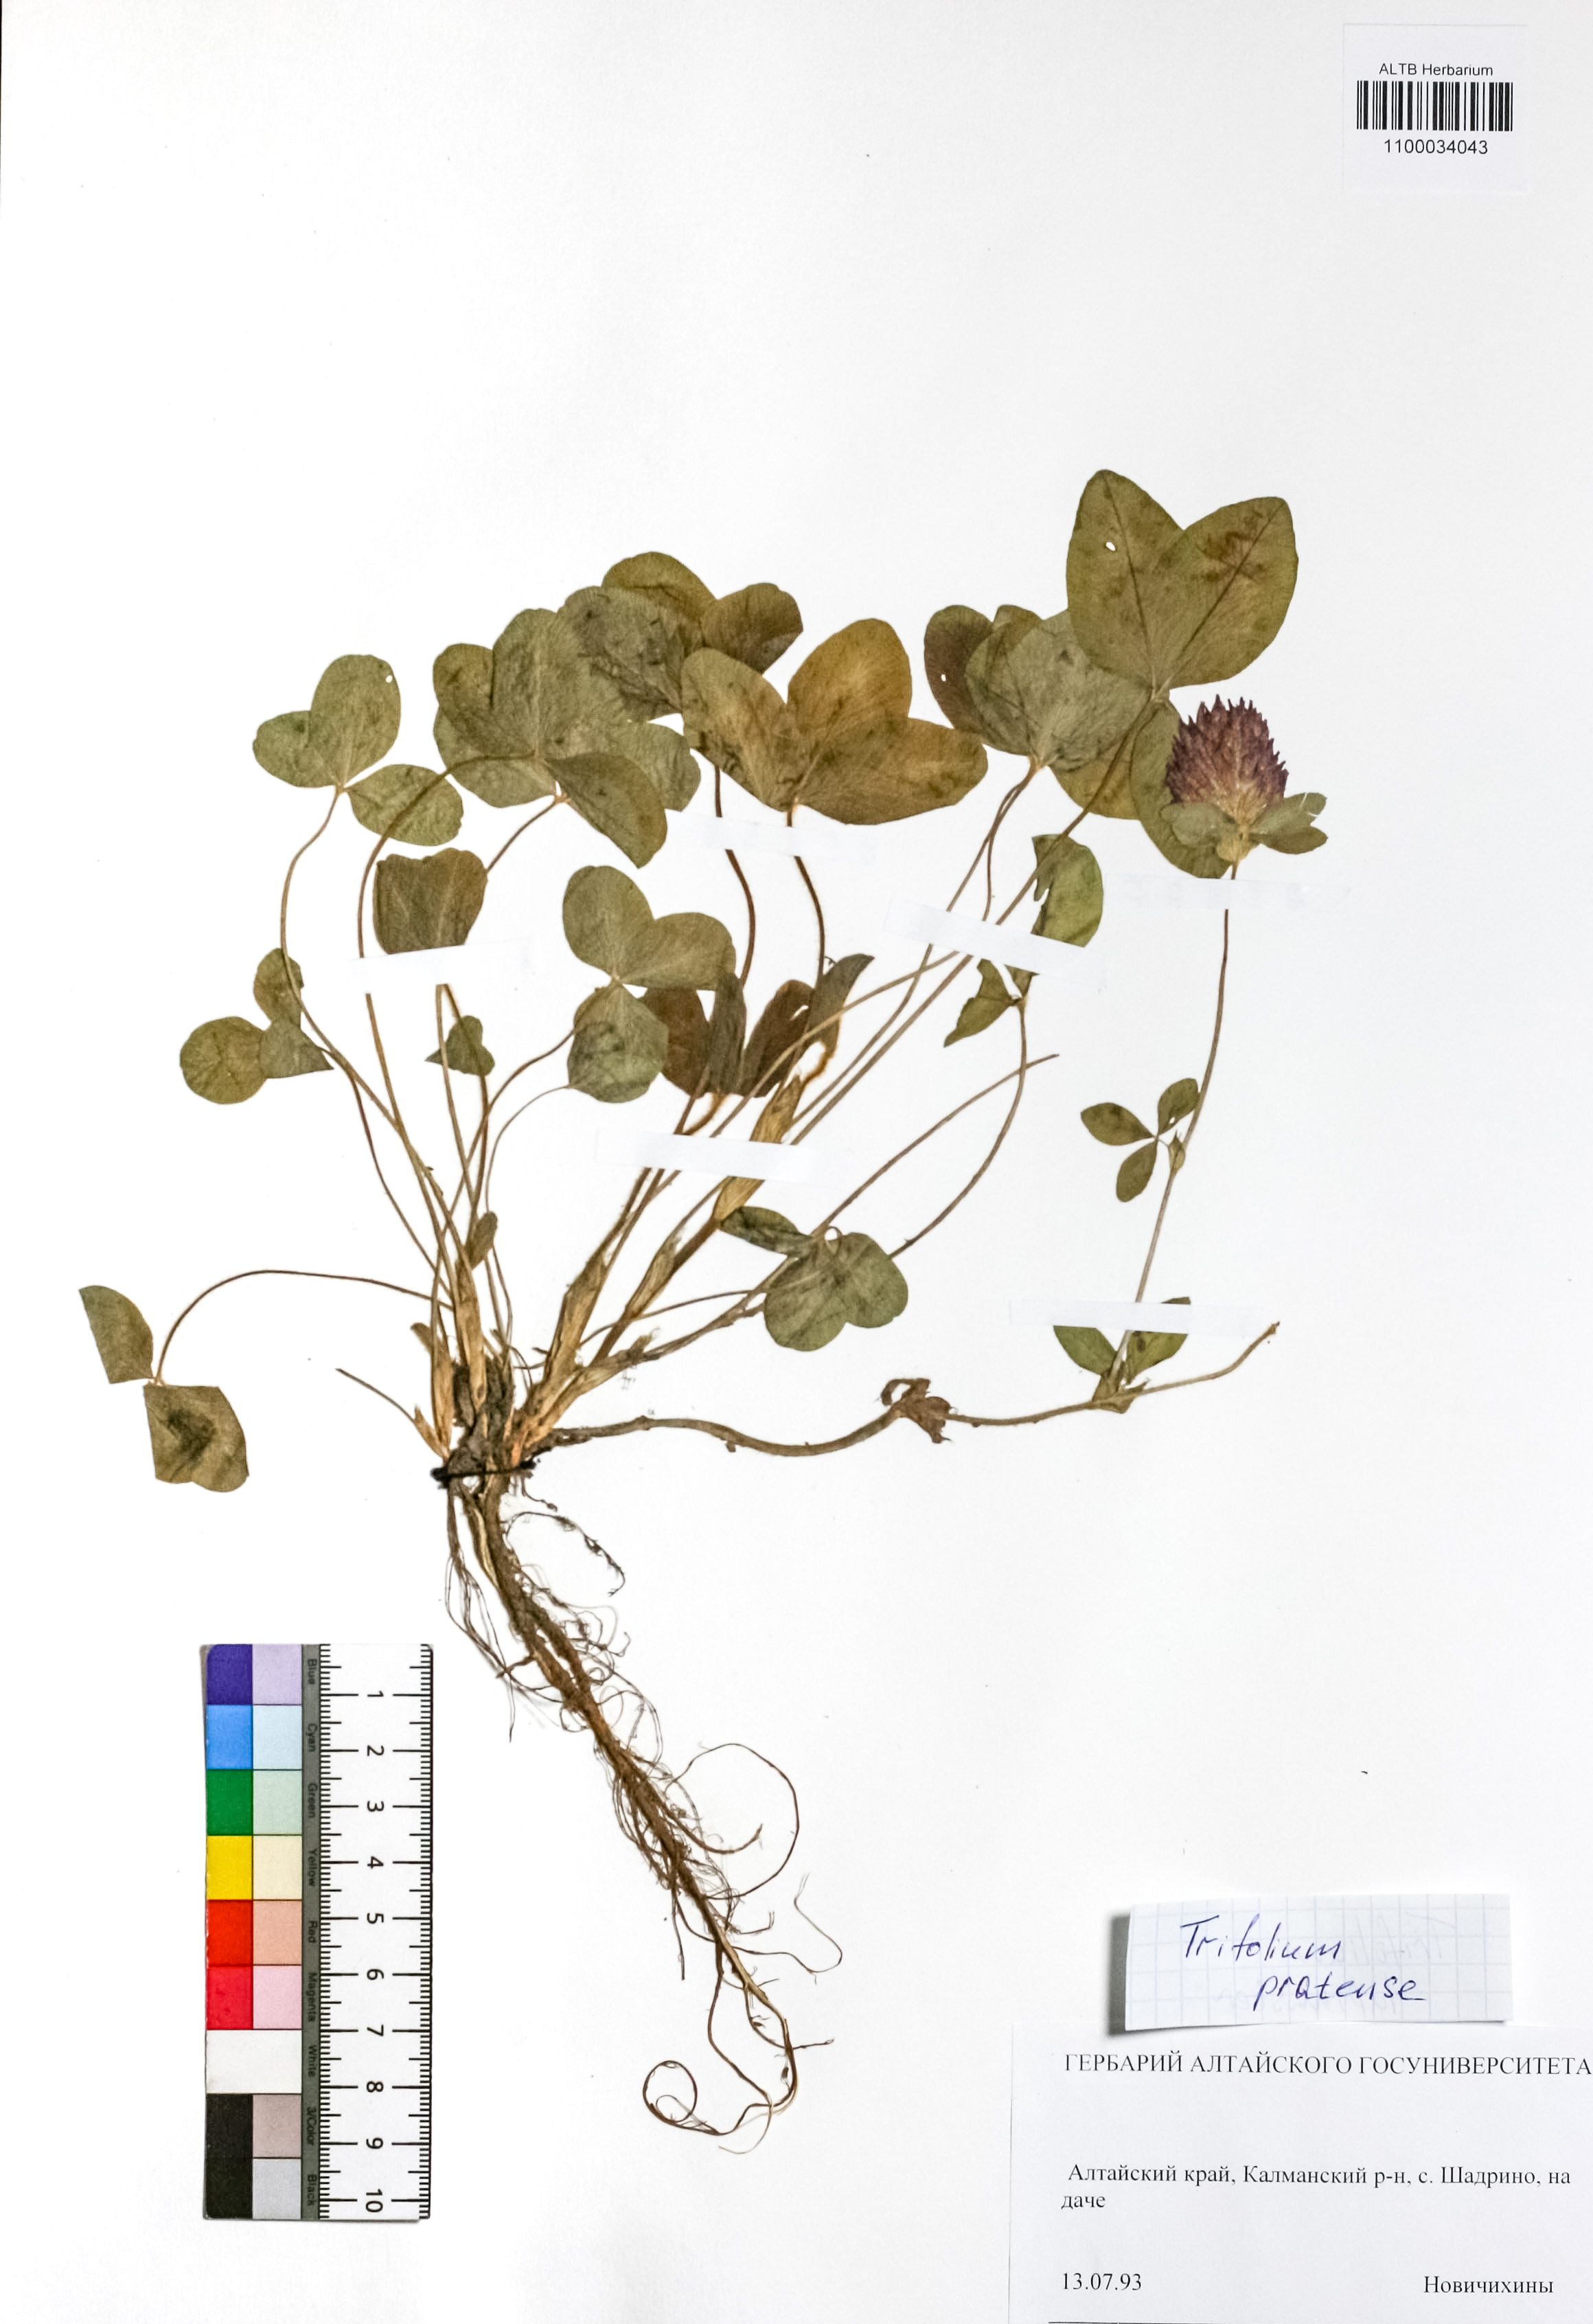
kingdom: Plantae
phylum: Tracheophyta
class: Magnoliopsida
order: Fabales
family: Fabaceae
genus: Trifolium
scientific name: Trifolium pratense
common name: Red clover
